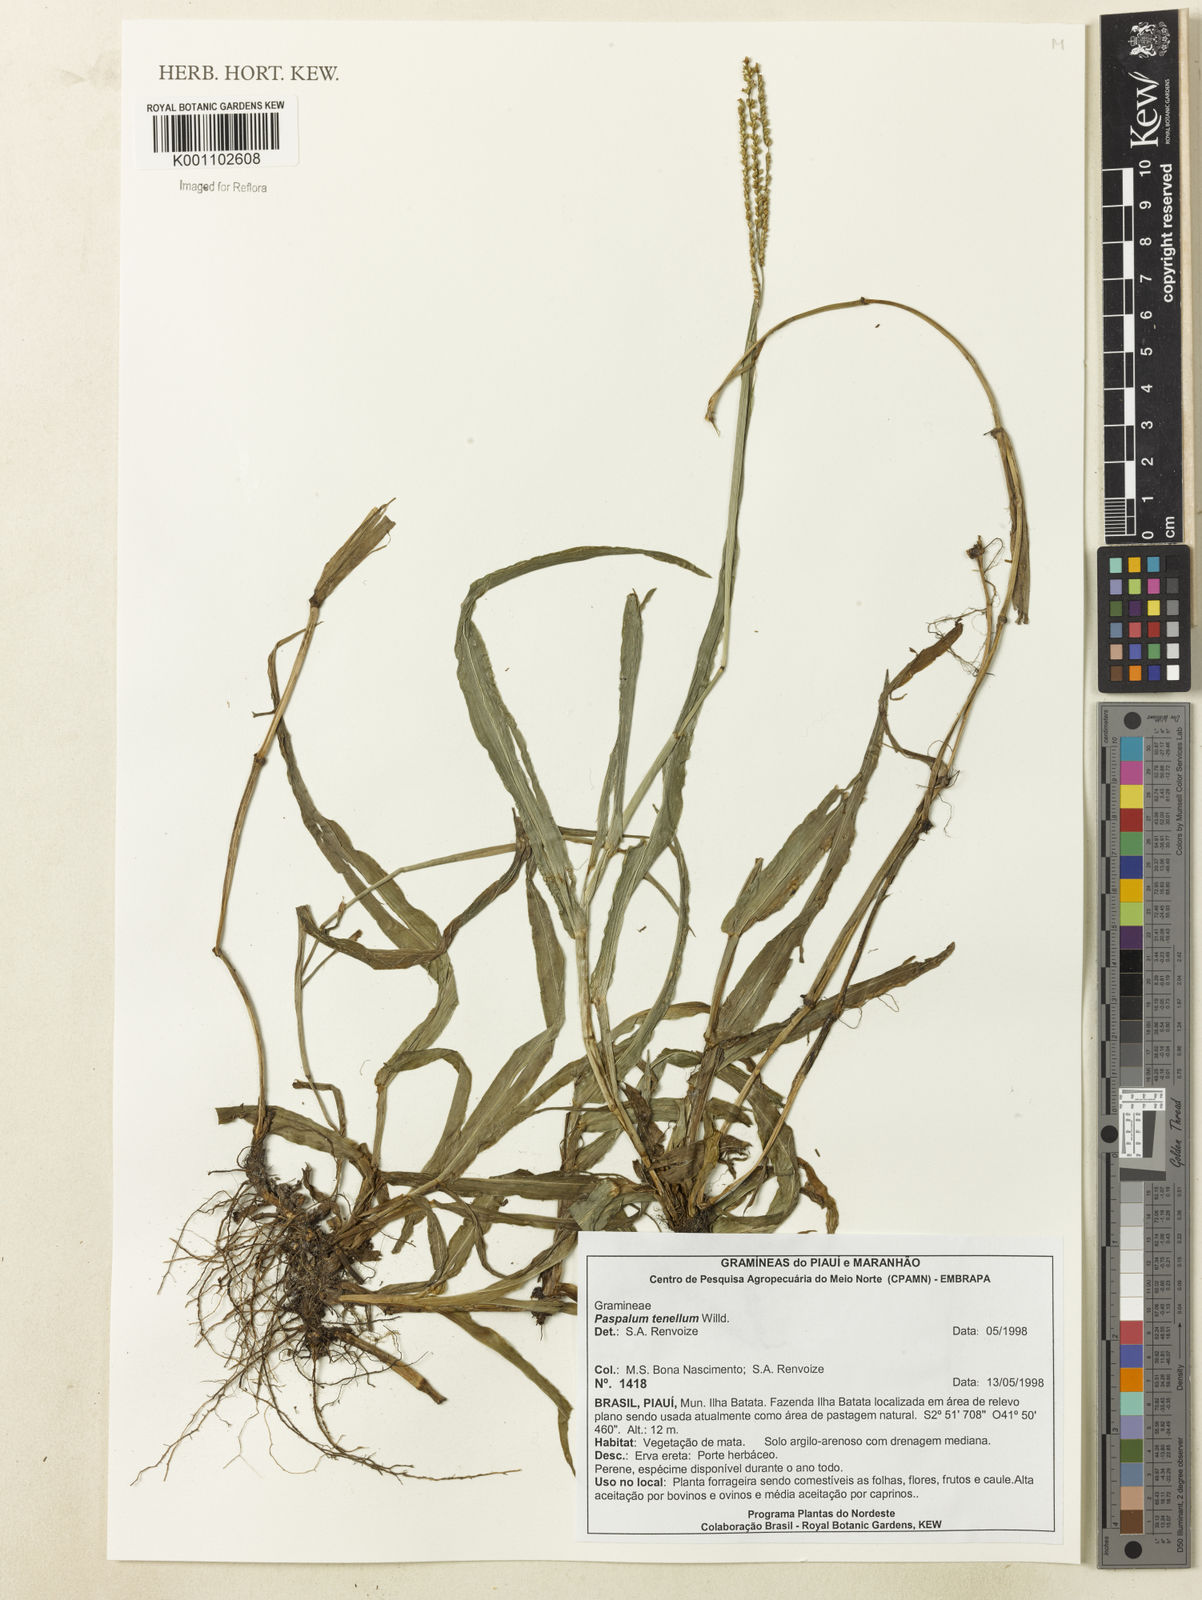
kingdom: Plantae
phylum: Tracheophyta
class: Liliopsida
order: Poales
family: Poaceae
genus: Paspalum
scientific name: Paspalum tenellum
